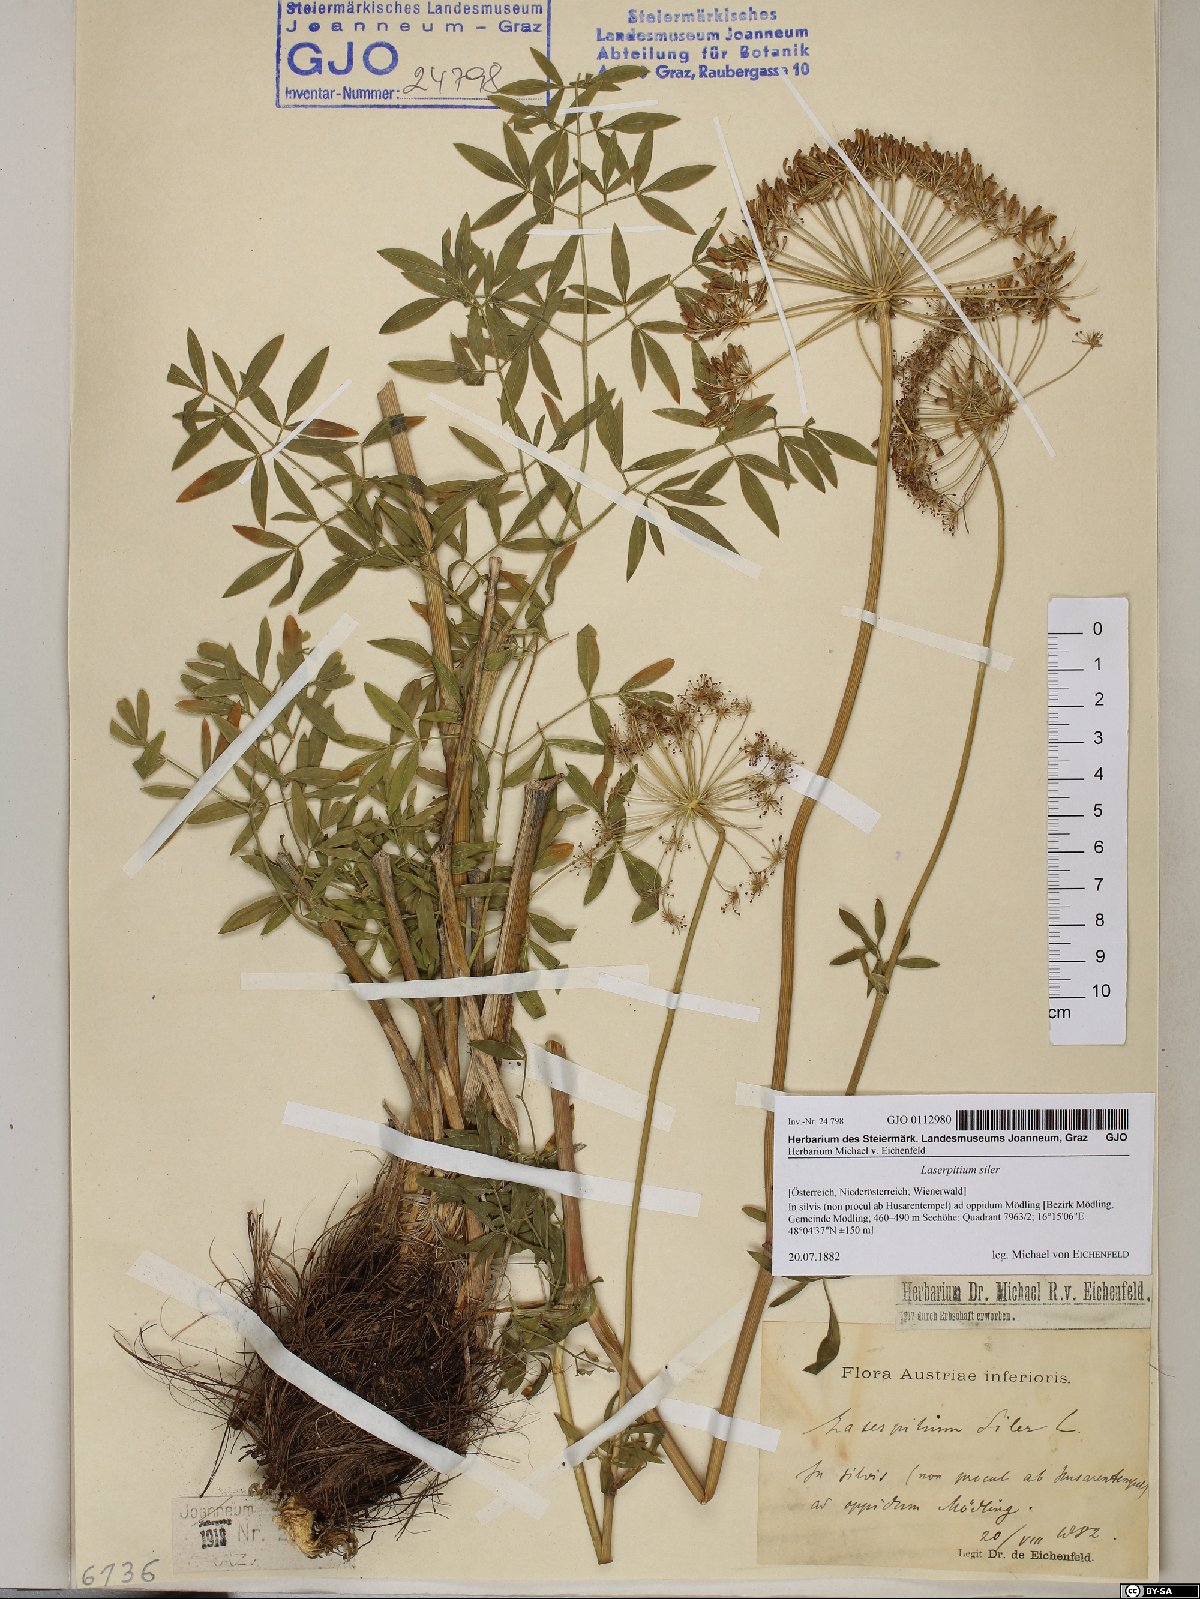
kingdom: Plantae
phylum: Tracheophyta
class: Magnoliopsida
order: Apiales
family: Apiaceae
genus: Siler
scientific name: Siler montanum
